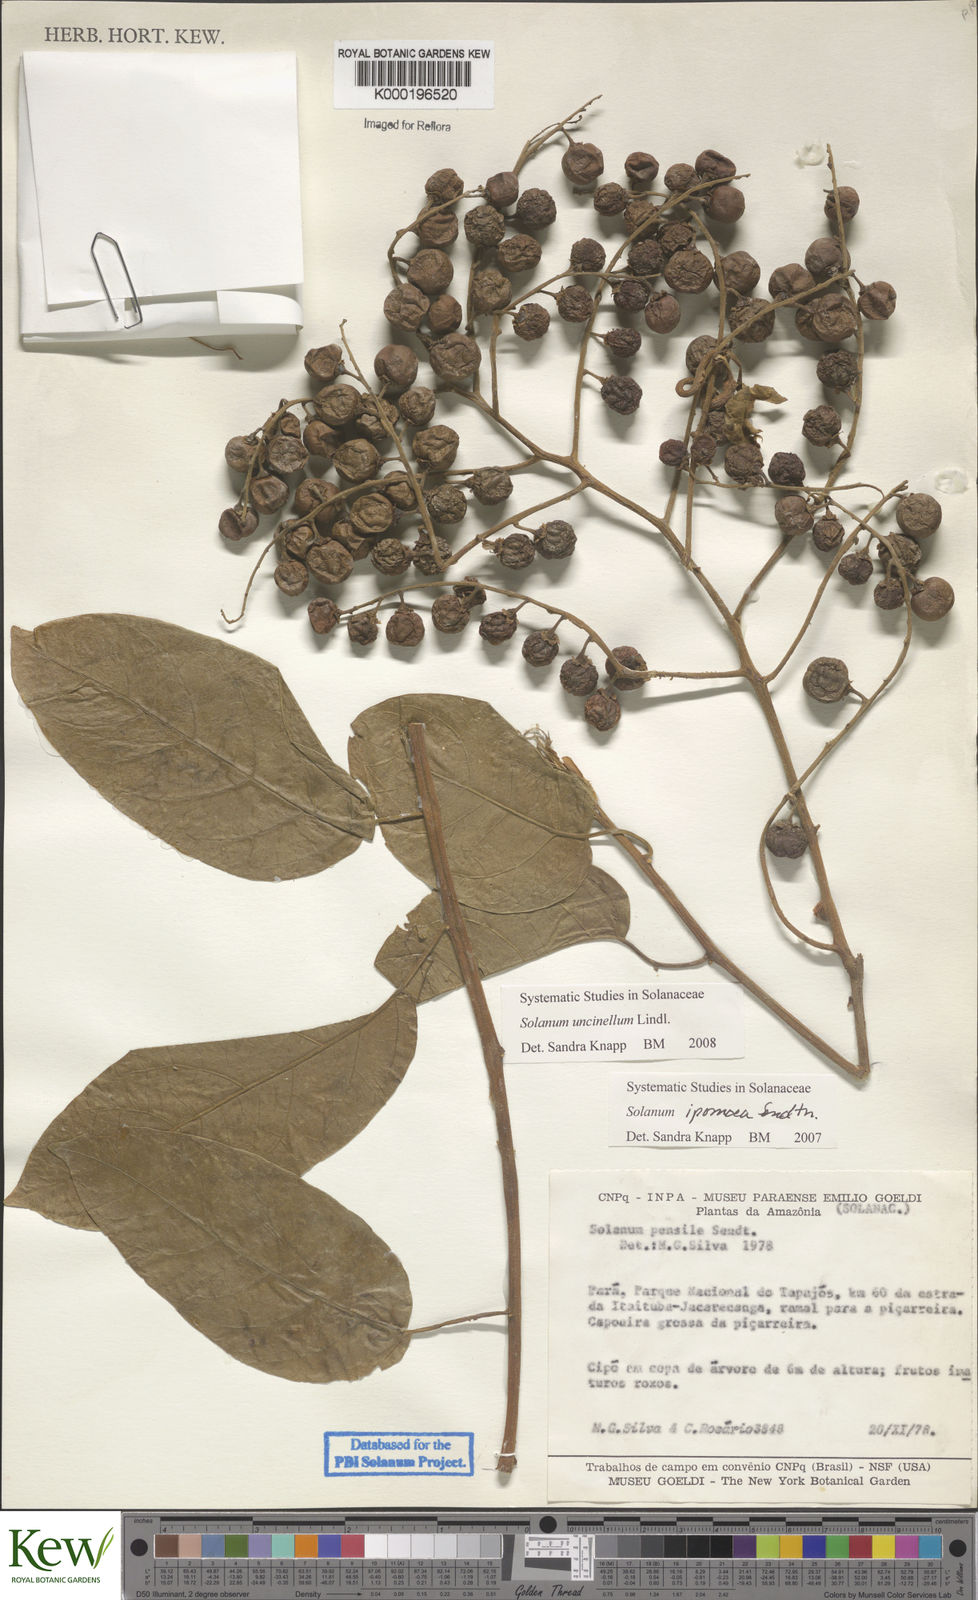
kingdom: Plantae
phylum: Tracheophyta
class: Magnoliopsida
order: Solanales
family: Solanaceae
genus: Solanum
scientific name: Solanum uncinellum
